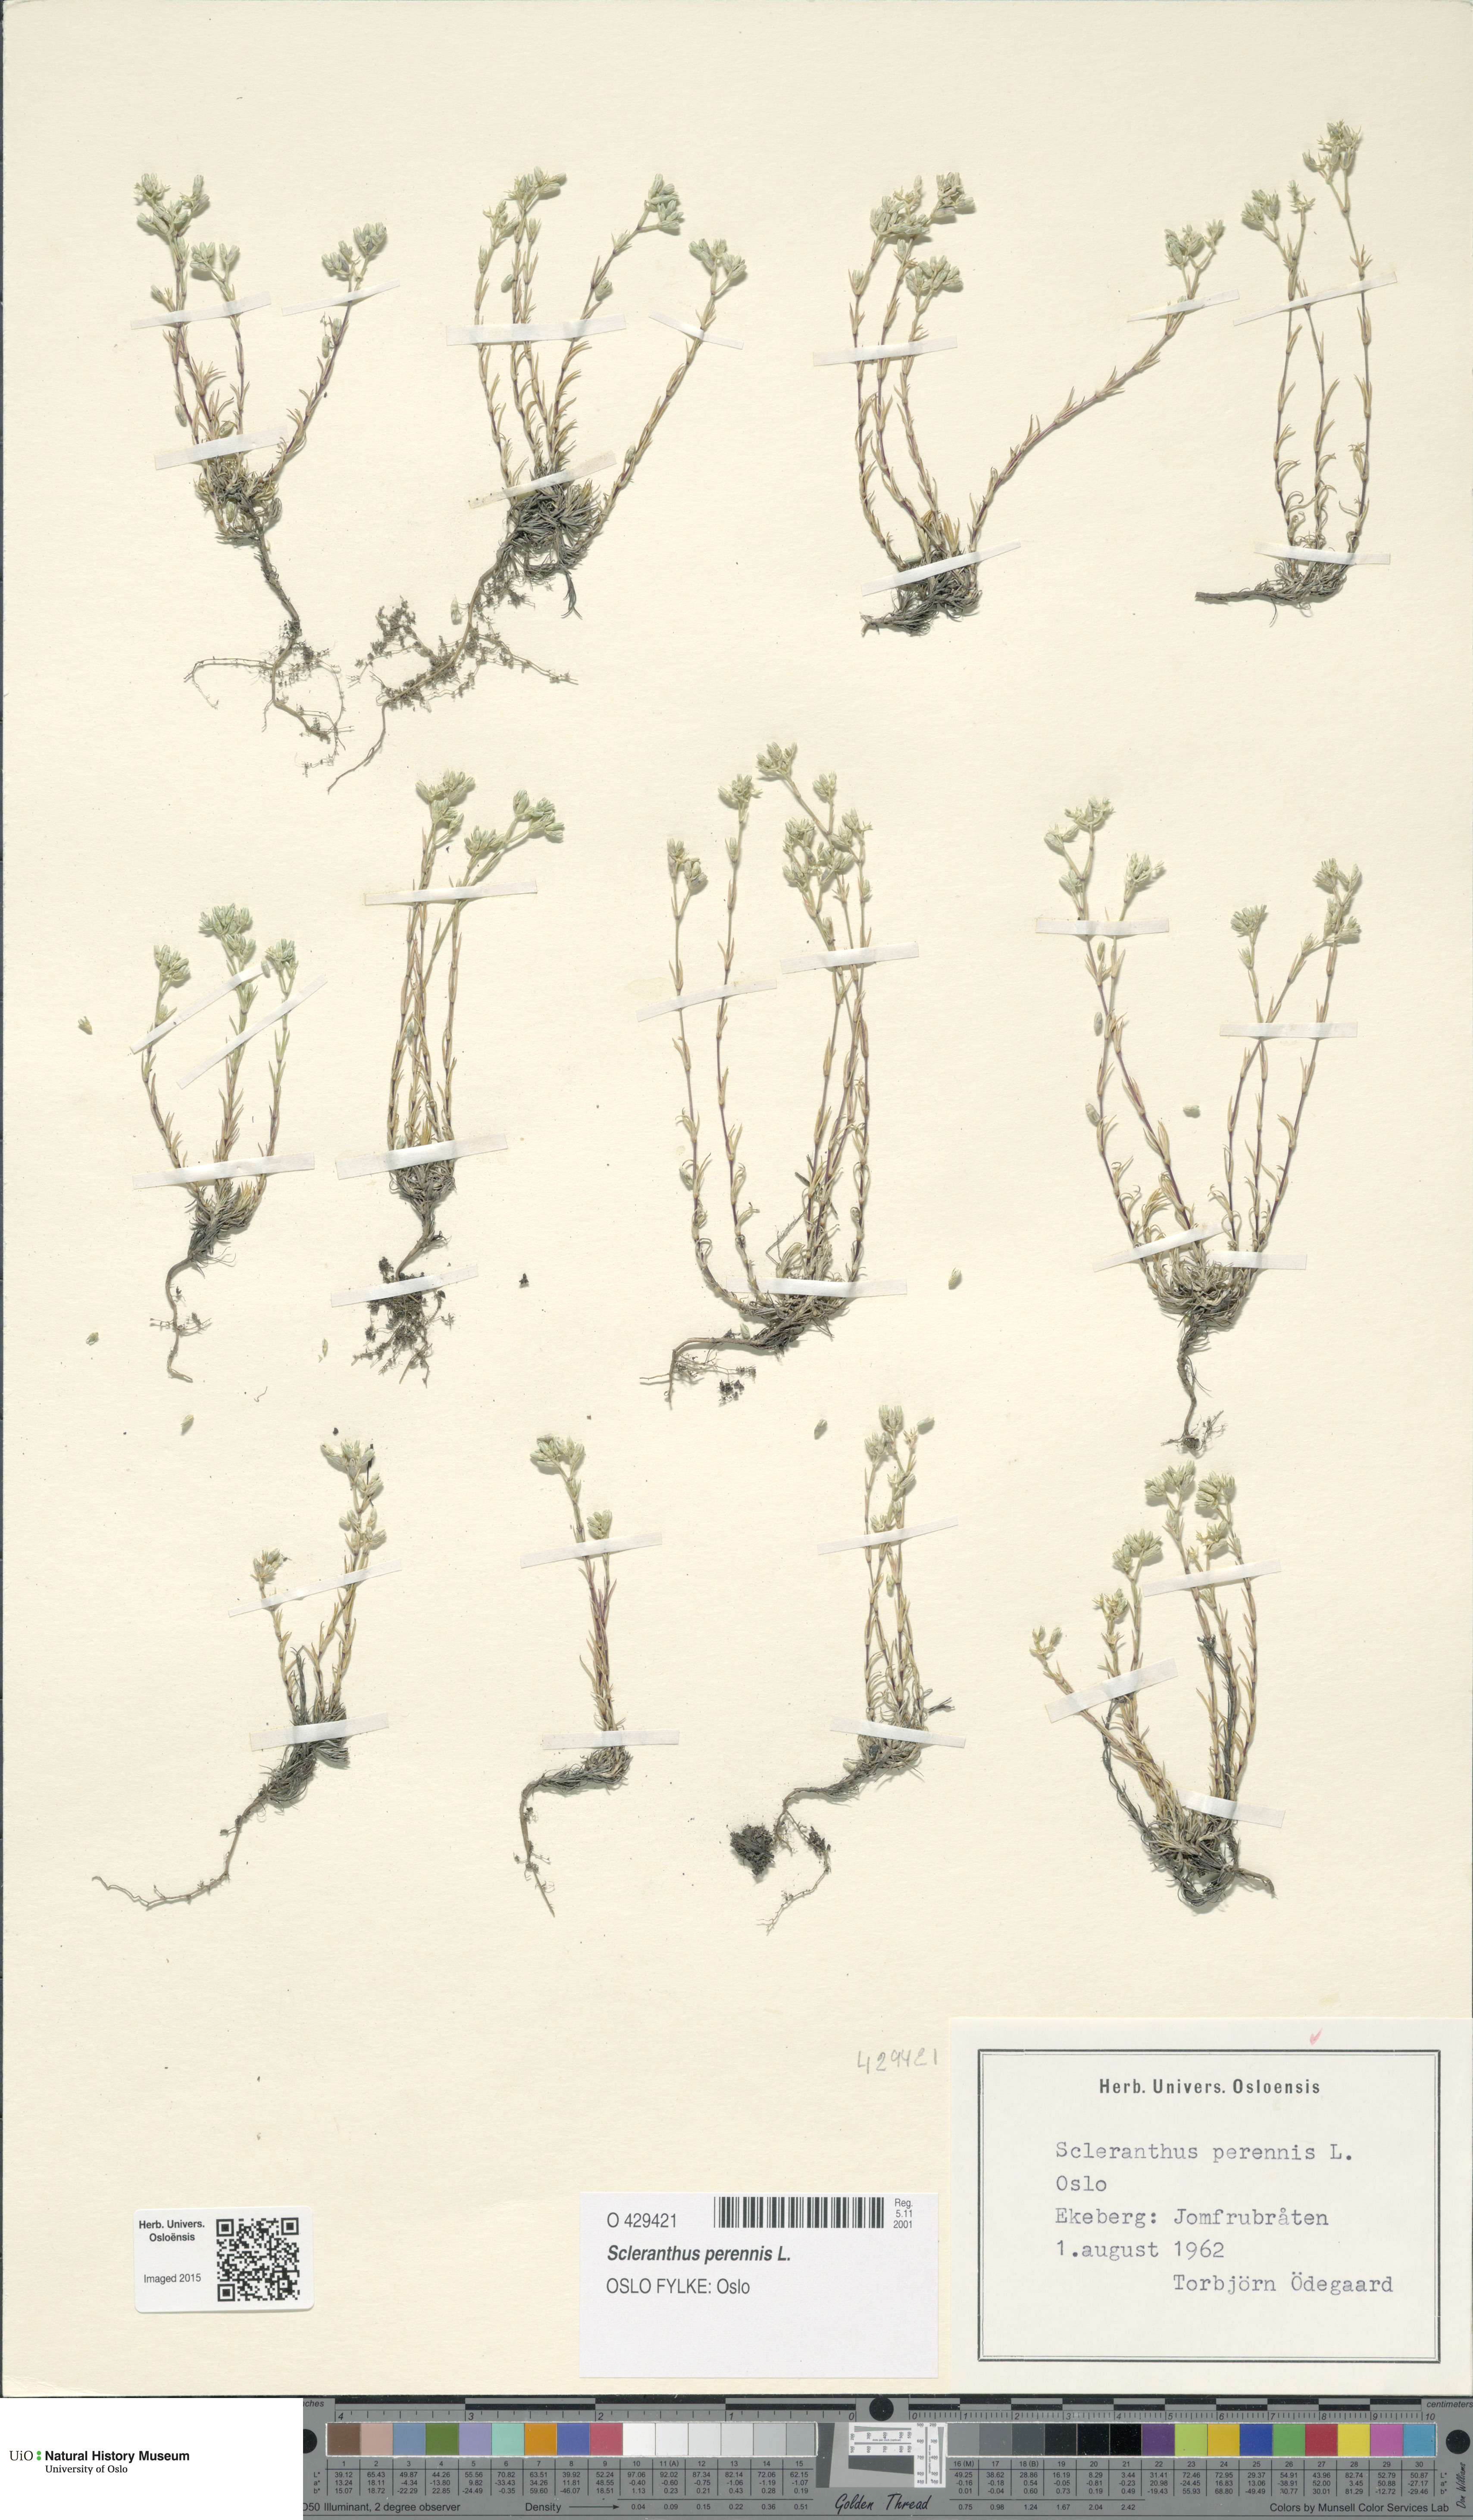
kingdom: Plantae
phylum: Tracheophyta
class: Magnoliopsida
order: Caryophyllales
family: Caryophyllaceae
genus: Scleranthus
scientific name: Scleranthus perennis
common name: Perennial knawel
